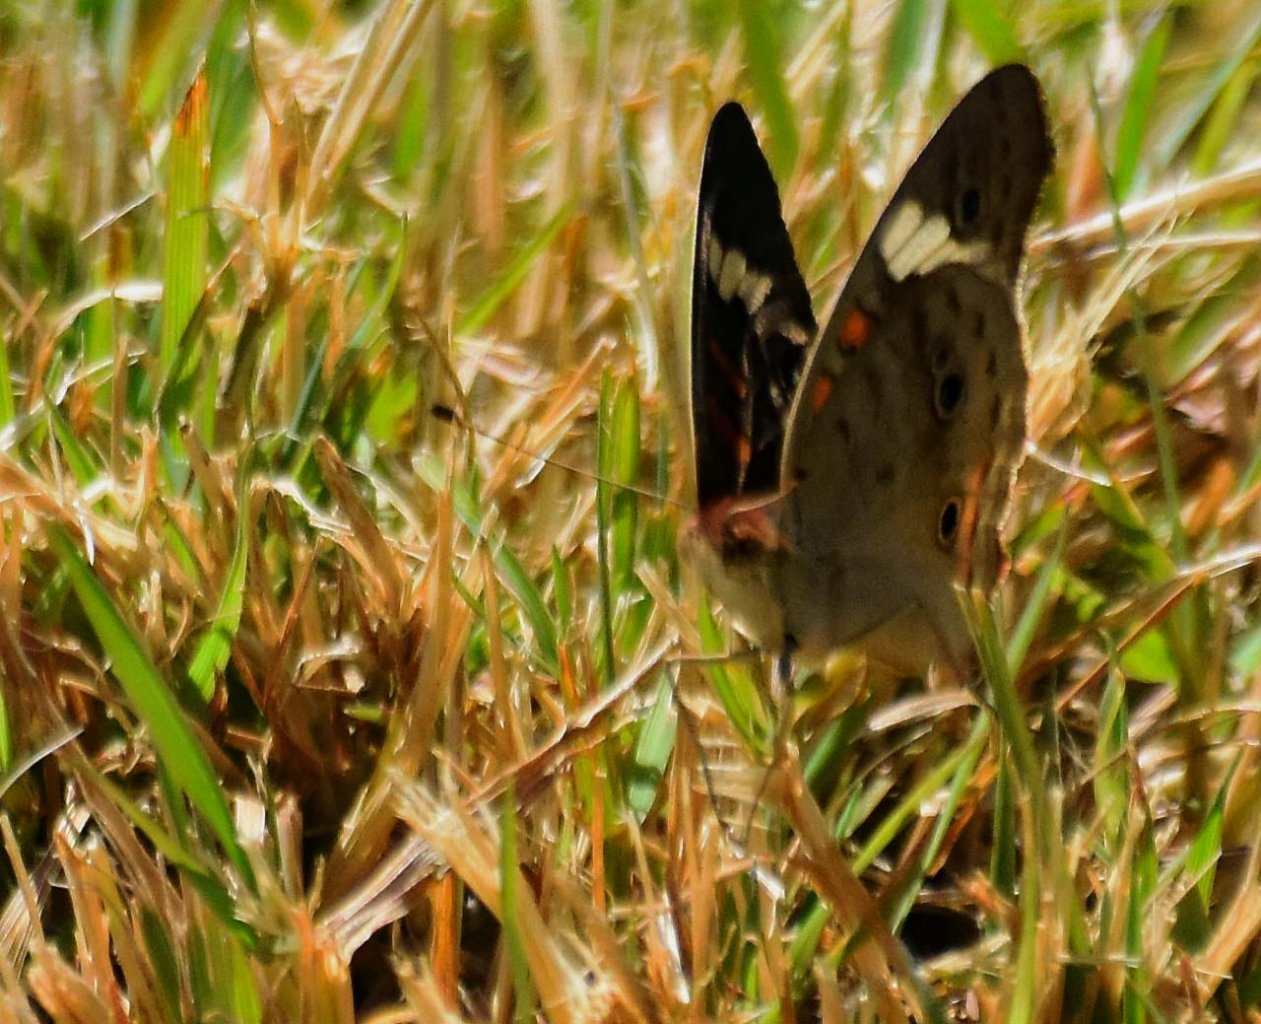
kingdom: Animalia
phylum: Arthropoda
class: Insecta
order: Lepidoptera
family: Nymphalidae
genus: Junonia
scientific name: Junonia coenia
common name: Common Buckeye
